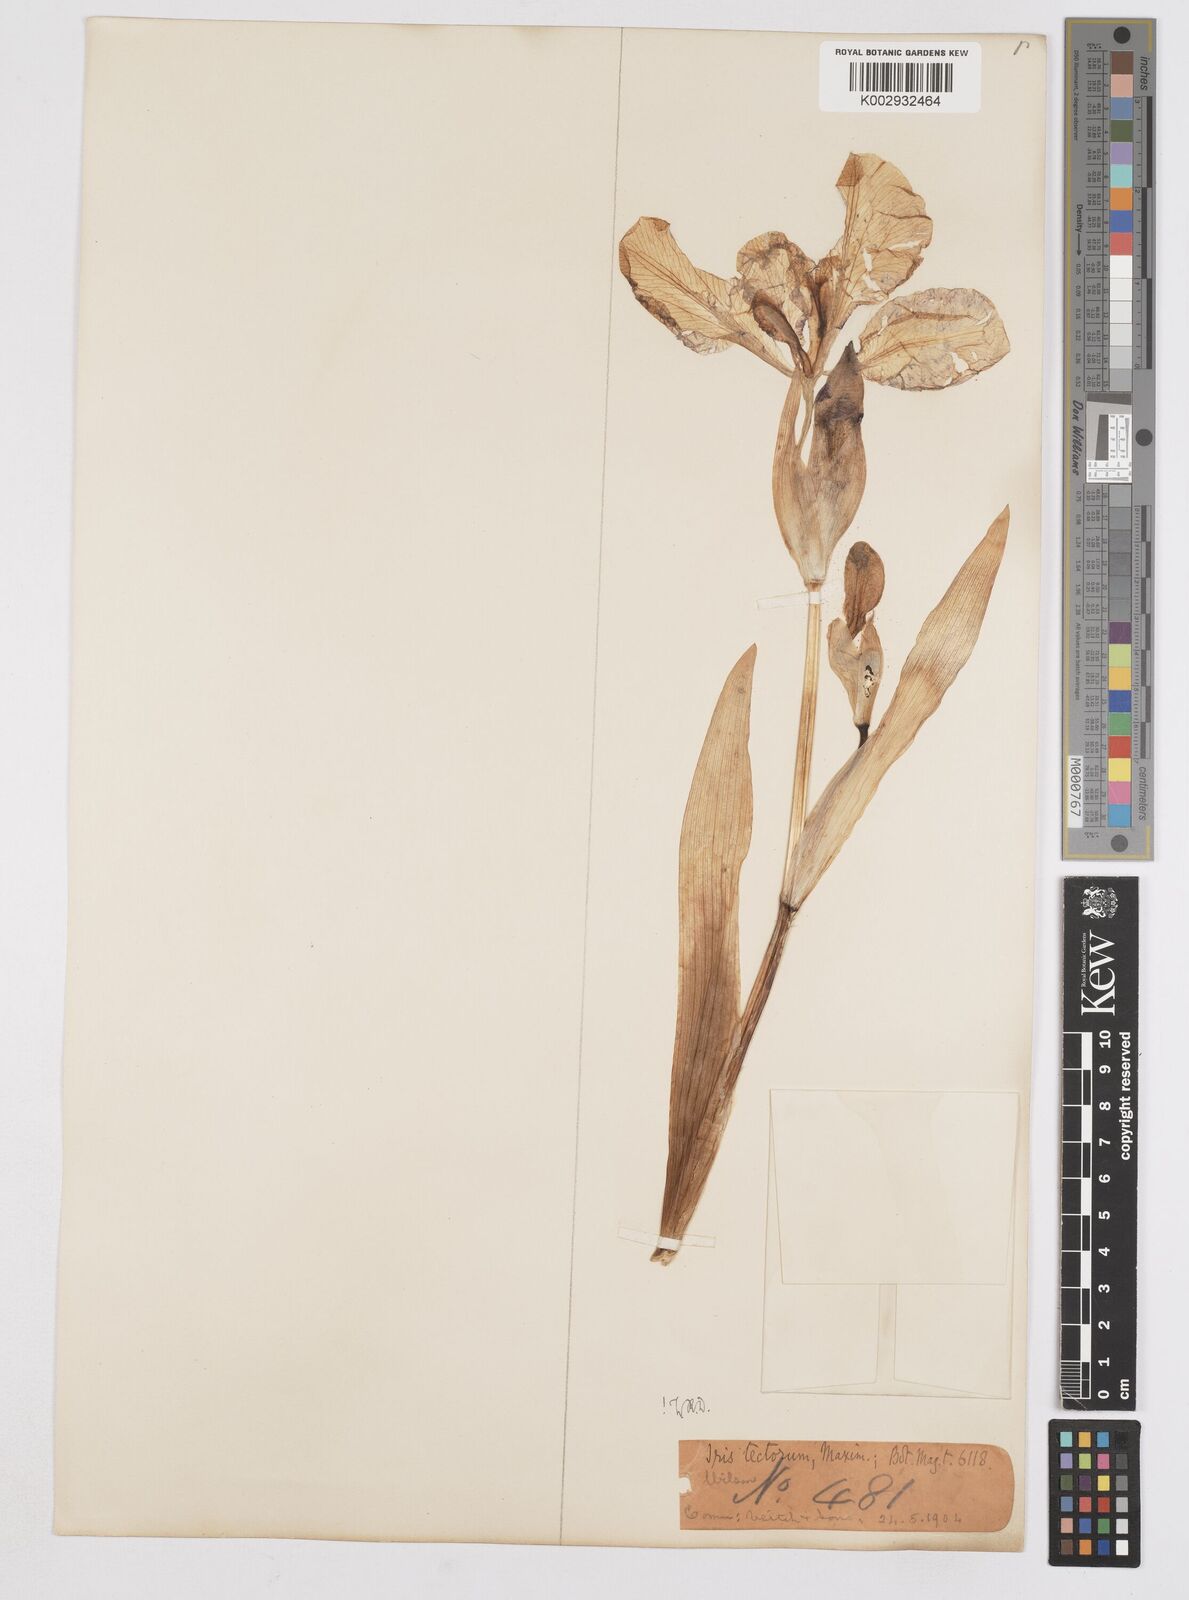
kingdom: Plantae
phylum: Tracheophyta
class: Liliopsida
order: Asparagales
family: Iridaceae
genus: Iris
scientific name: Iris tectorum
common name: Wall iris
